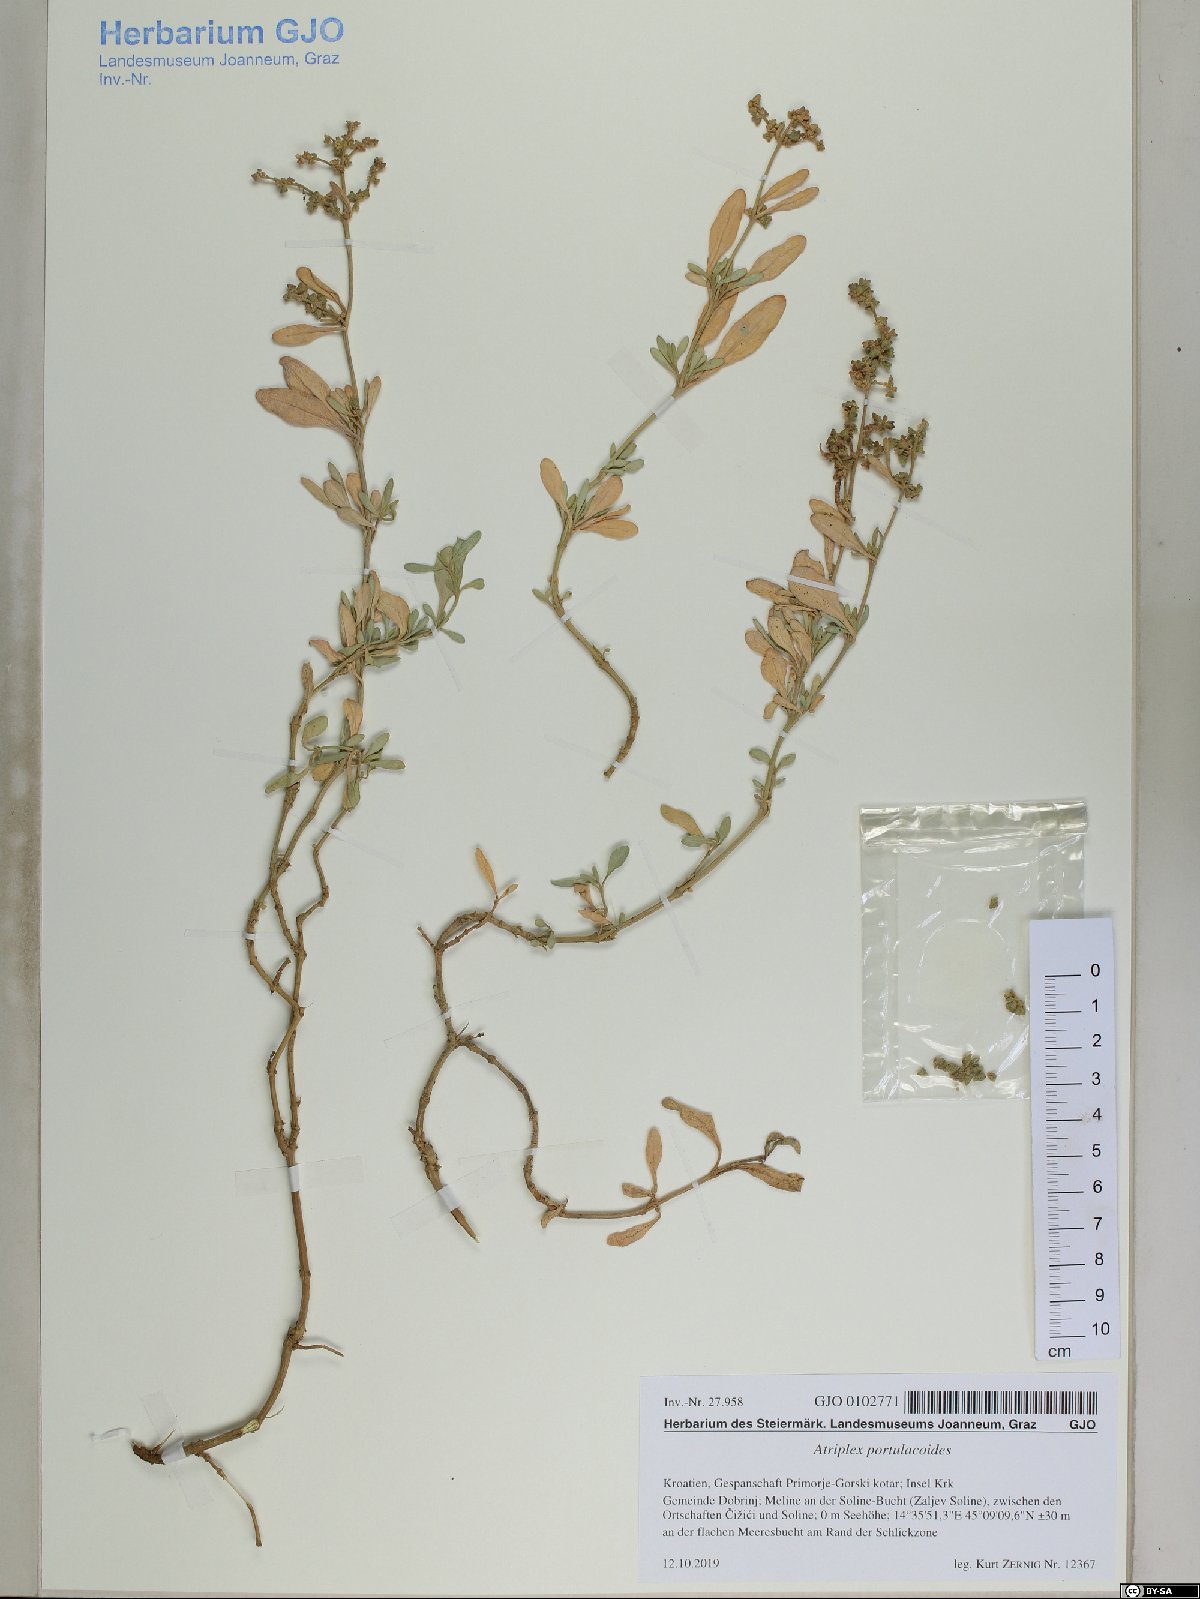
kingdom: Plantae
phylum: Tracheophyta
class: Magnoliopsida
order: Caryophyllales
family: Amaranthaceae
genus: Halimione
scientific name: Halimione portulacoides
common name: Sea-purslane
